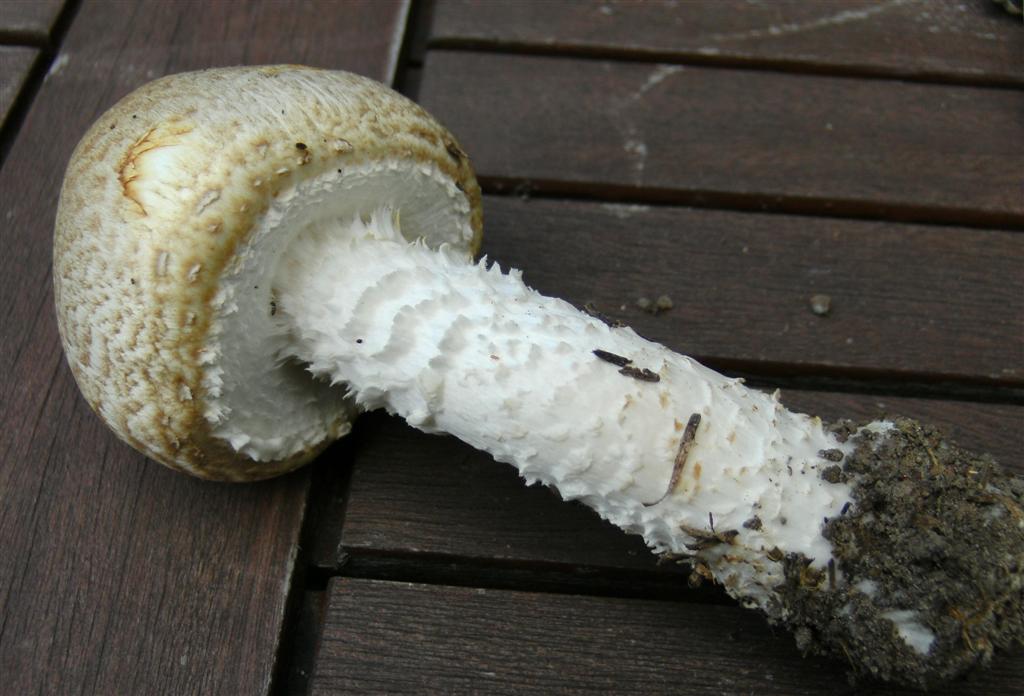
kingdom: Fungi
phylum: Basidiomycota
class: Agaricomycetes
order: Agaricales
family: Agaricaceae
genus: Agaricus
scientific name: Agaricus augustus
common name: prægtig champignon
